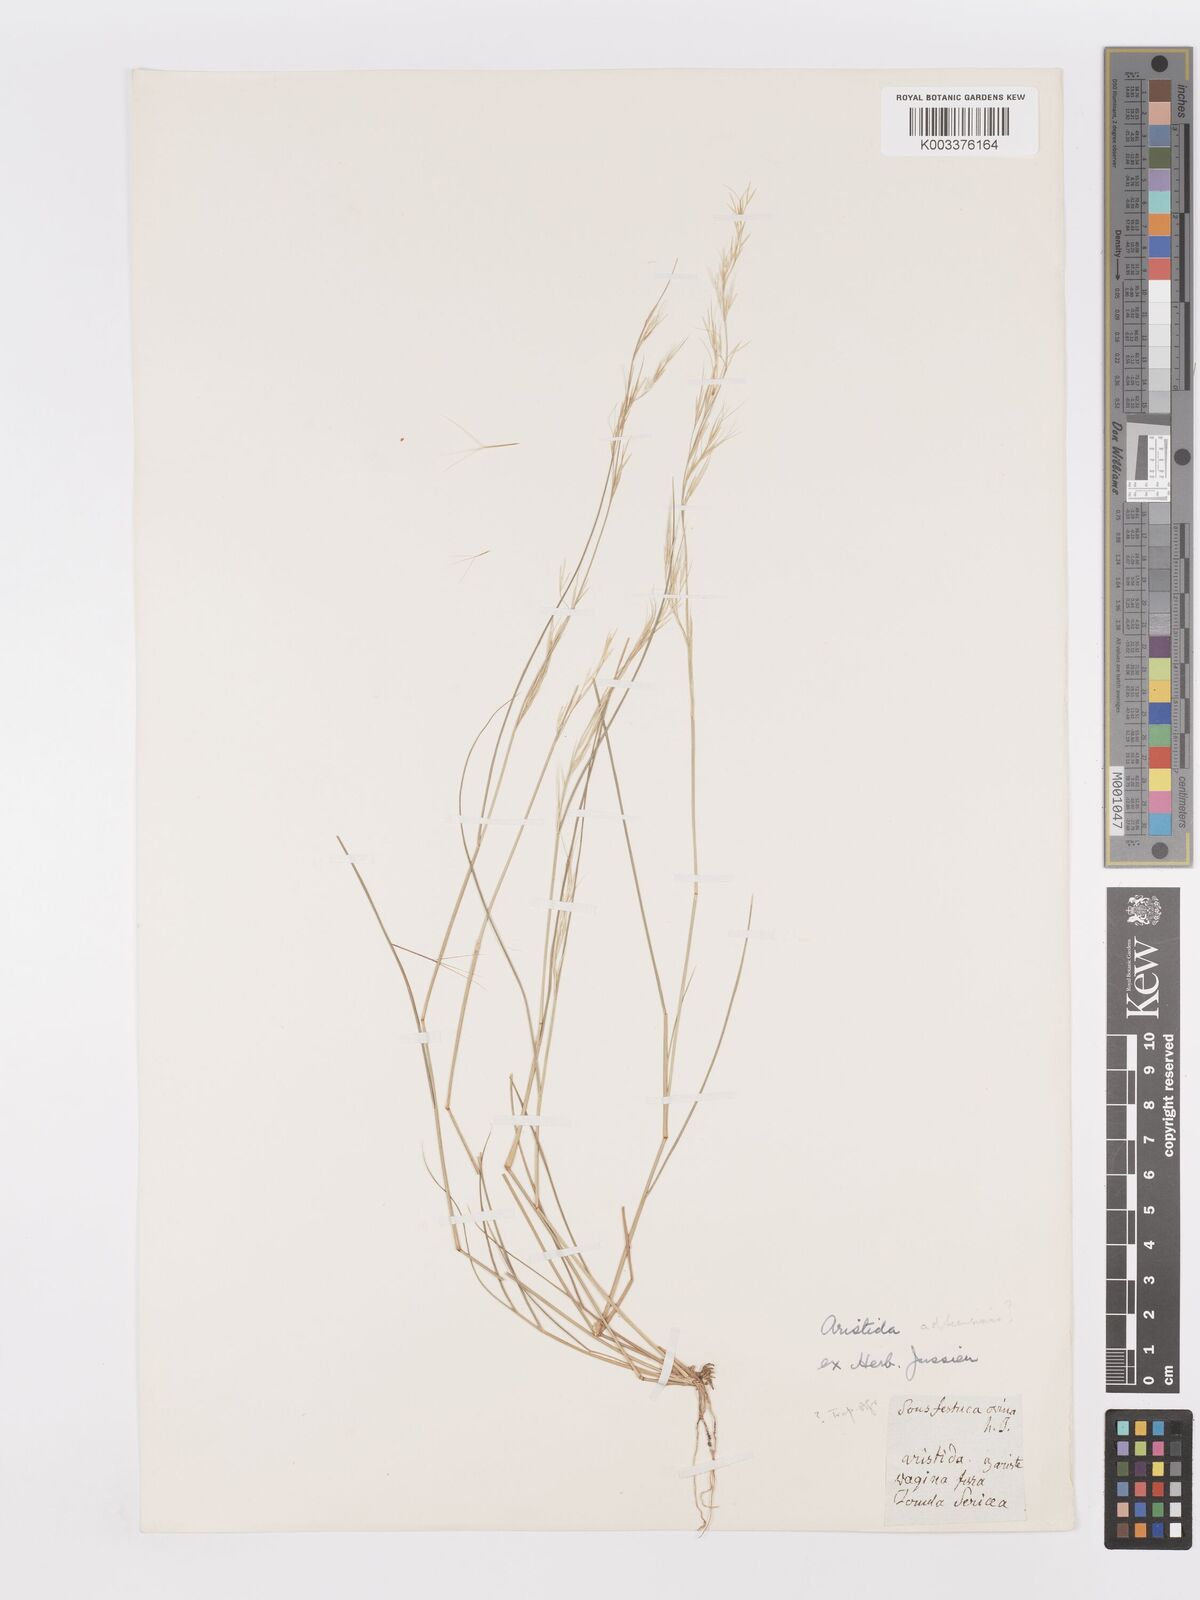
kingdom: Plantae
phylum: Tracheophyta
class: Liliopsida
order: Poales
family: Poaceae
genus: Aristida
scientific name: Aristida adscensionis
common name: Sixweeks threeawn
